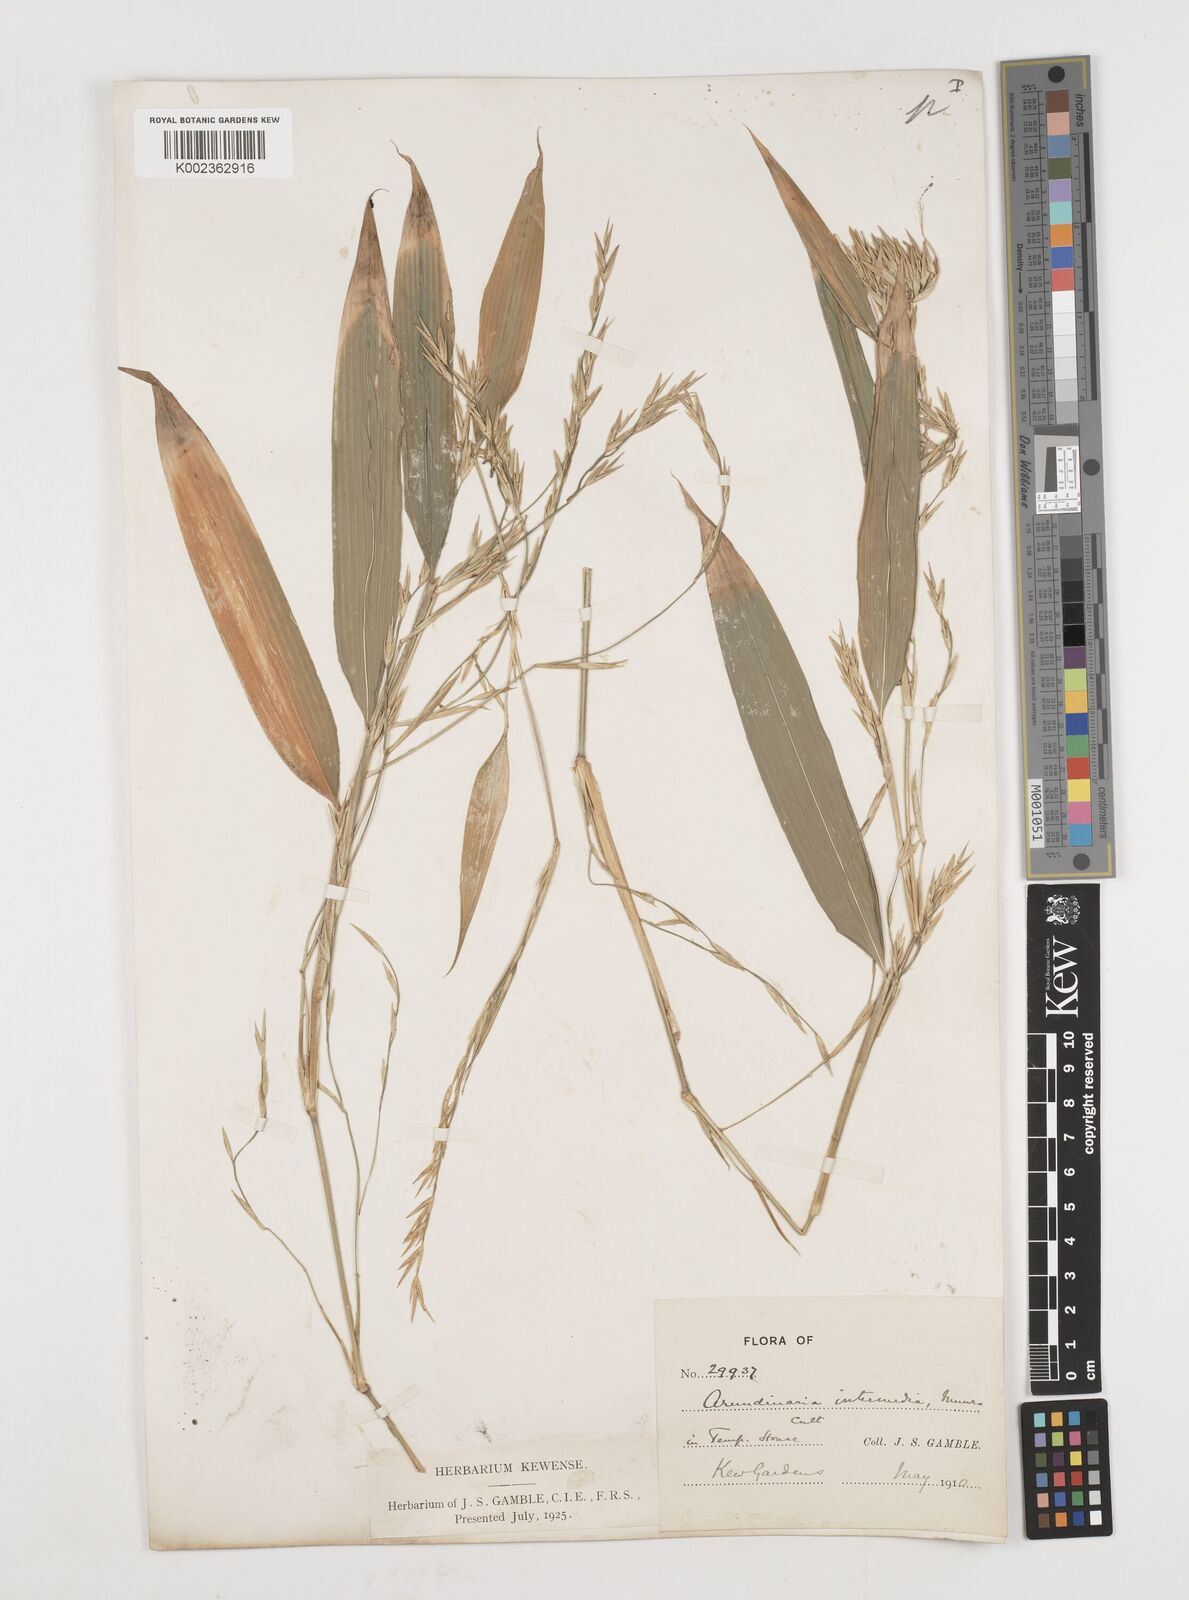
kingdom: Plantae
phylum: Tracheophyta
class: Liliopsida
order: Poales
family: Poaceae
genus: Drepanostachyum
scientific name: Drepanostachyum intermedium
